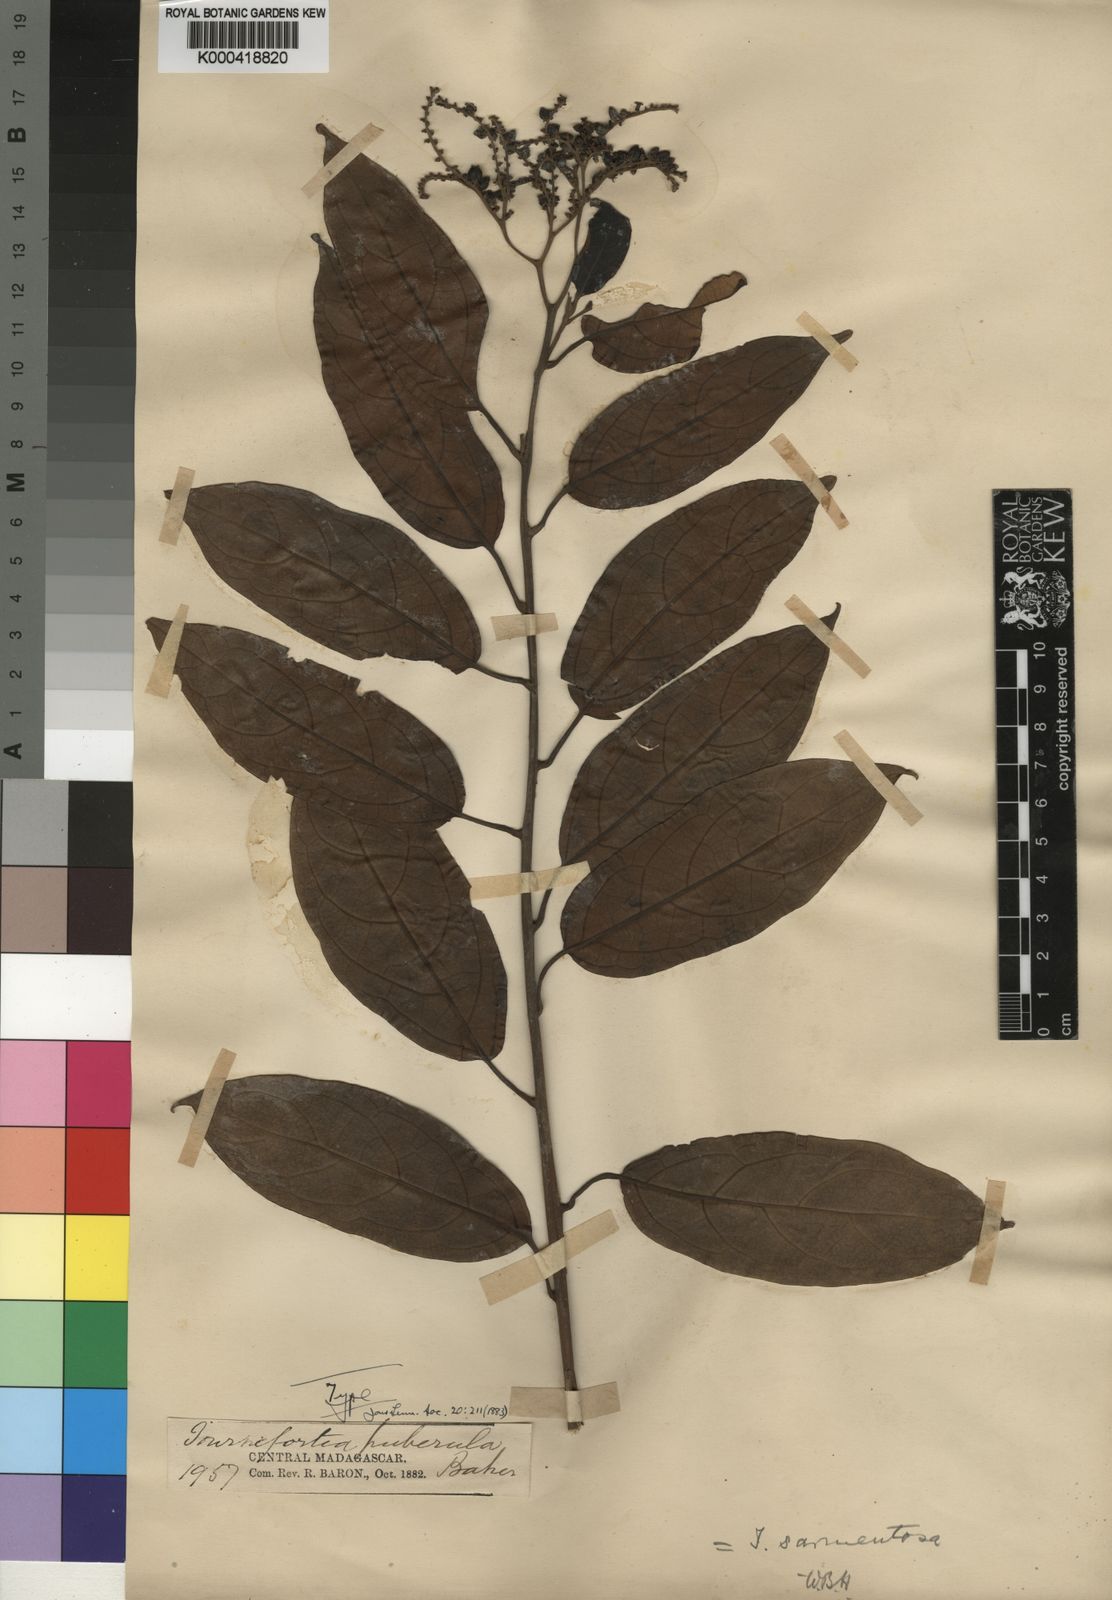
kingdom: Plantae
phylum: Tracheophyta
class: Magnoliopsida
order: Boraginales
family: Heliotropiaceae
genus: Tournefortia
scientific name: Tournefortia puberula
